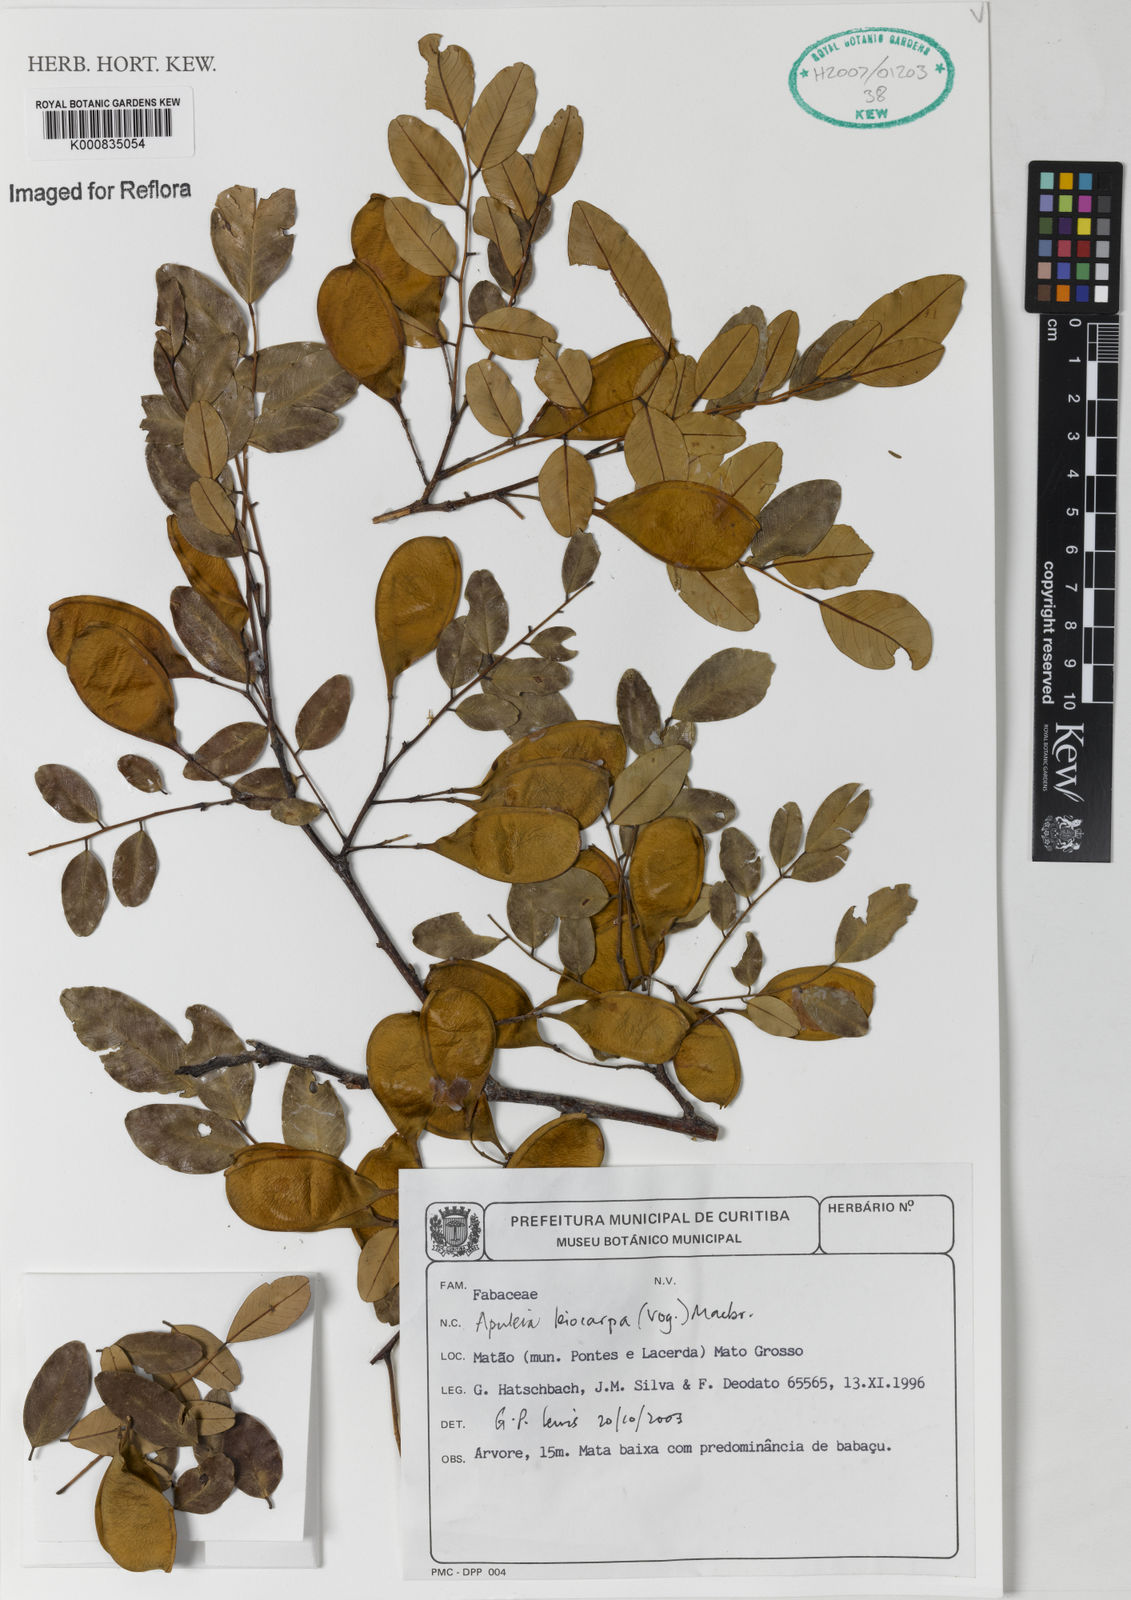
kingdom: Plantae
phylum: Tracheophyta
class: Magnoliopsida
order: Fabales
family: Fabaceae
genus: Apuleia
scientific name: Apuleia leiocarpa
